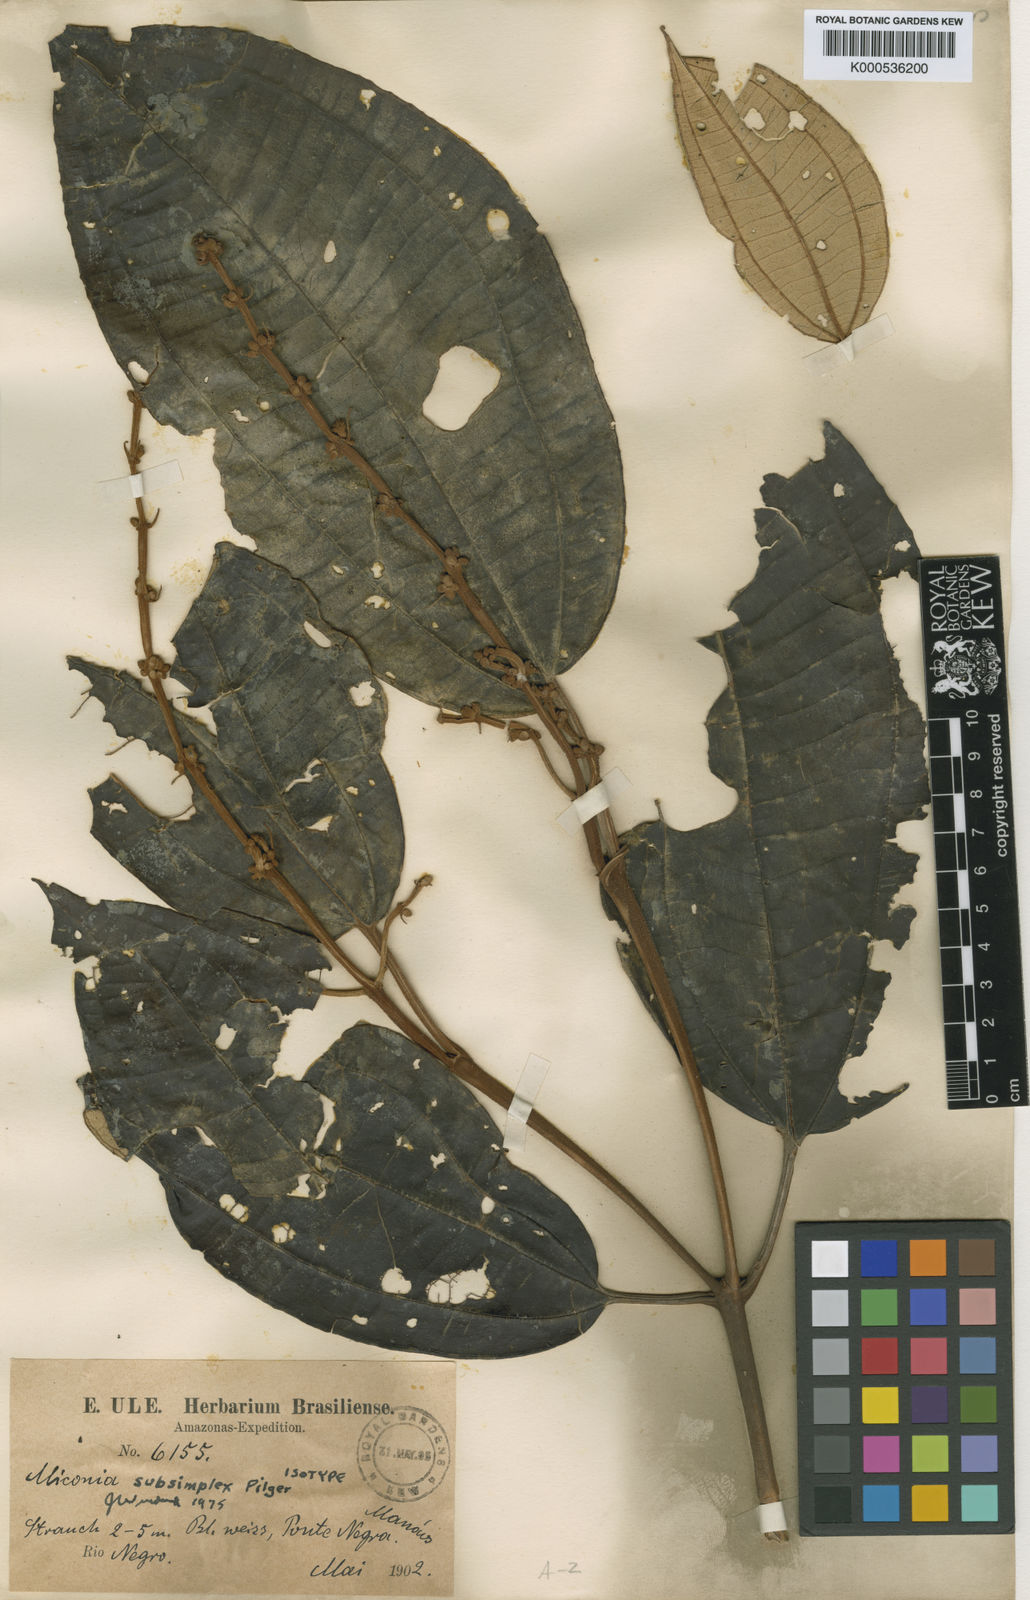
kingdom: Plantae
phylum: Tracheophyta
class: Magnoliopsida
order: Myrtales
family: Melastomataceae
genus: Miconia
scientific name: Miconia subsimplex
